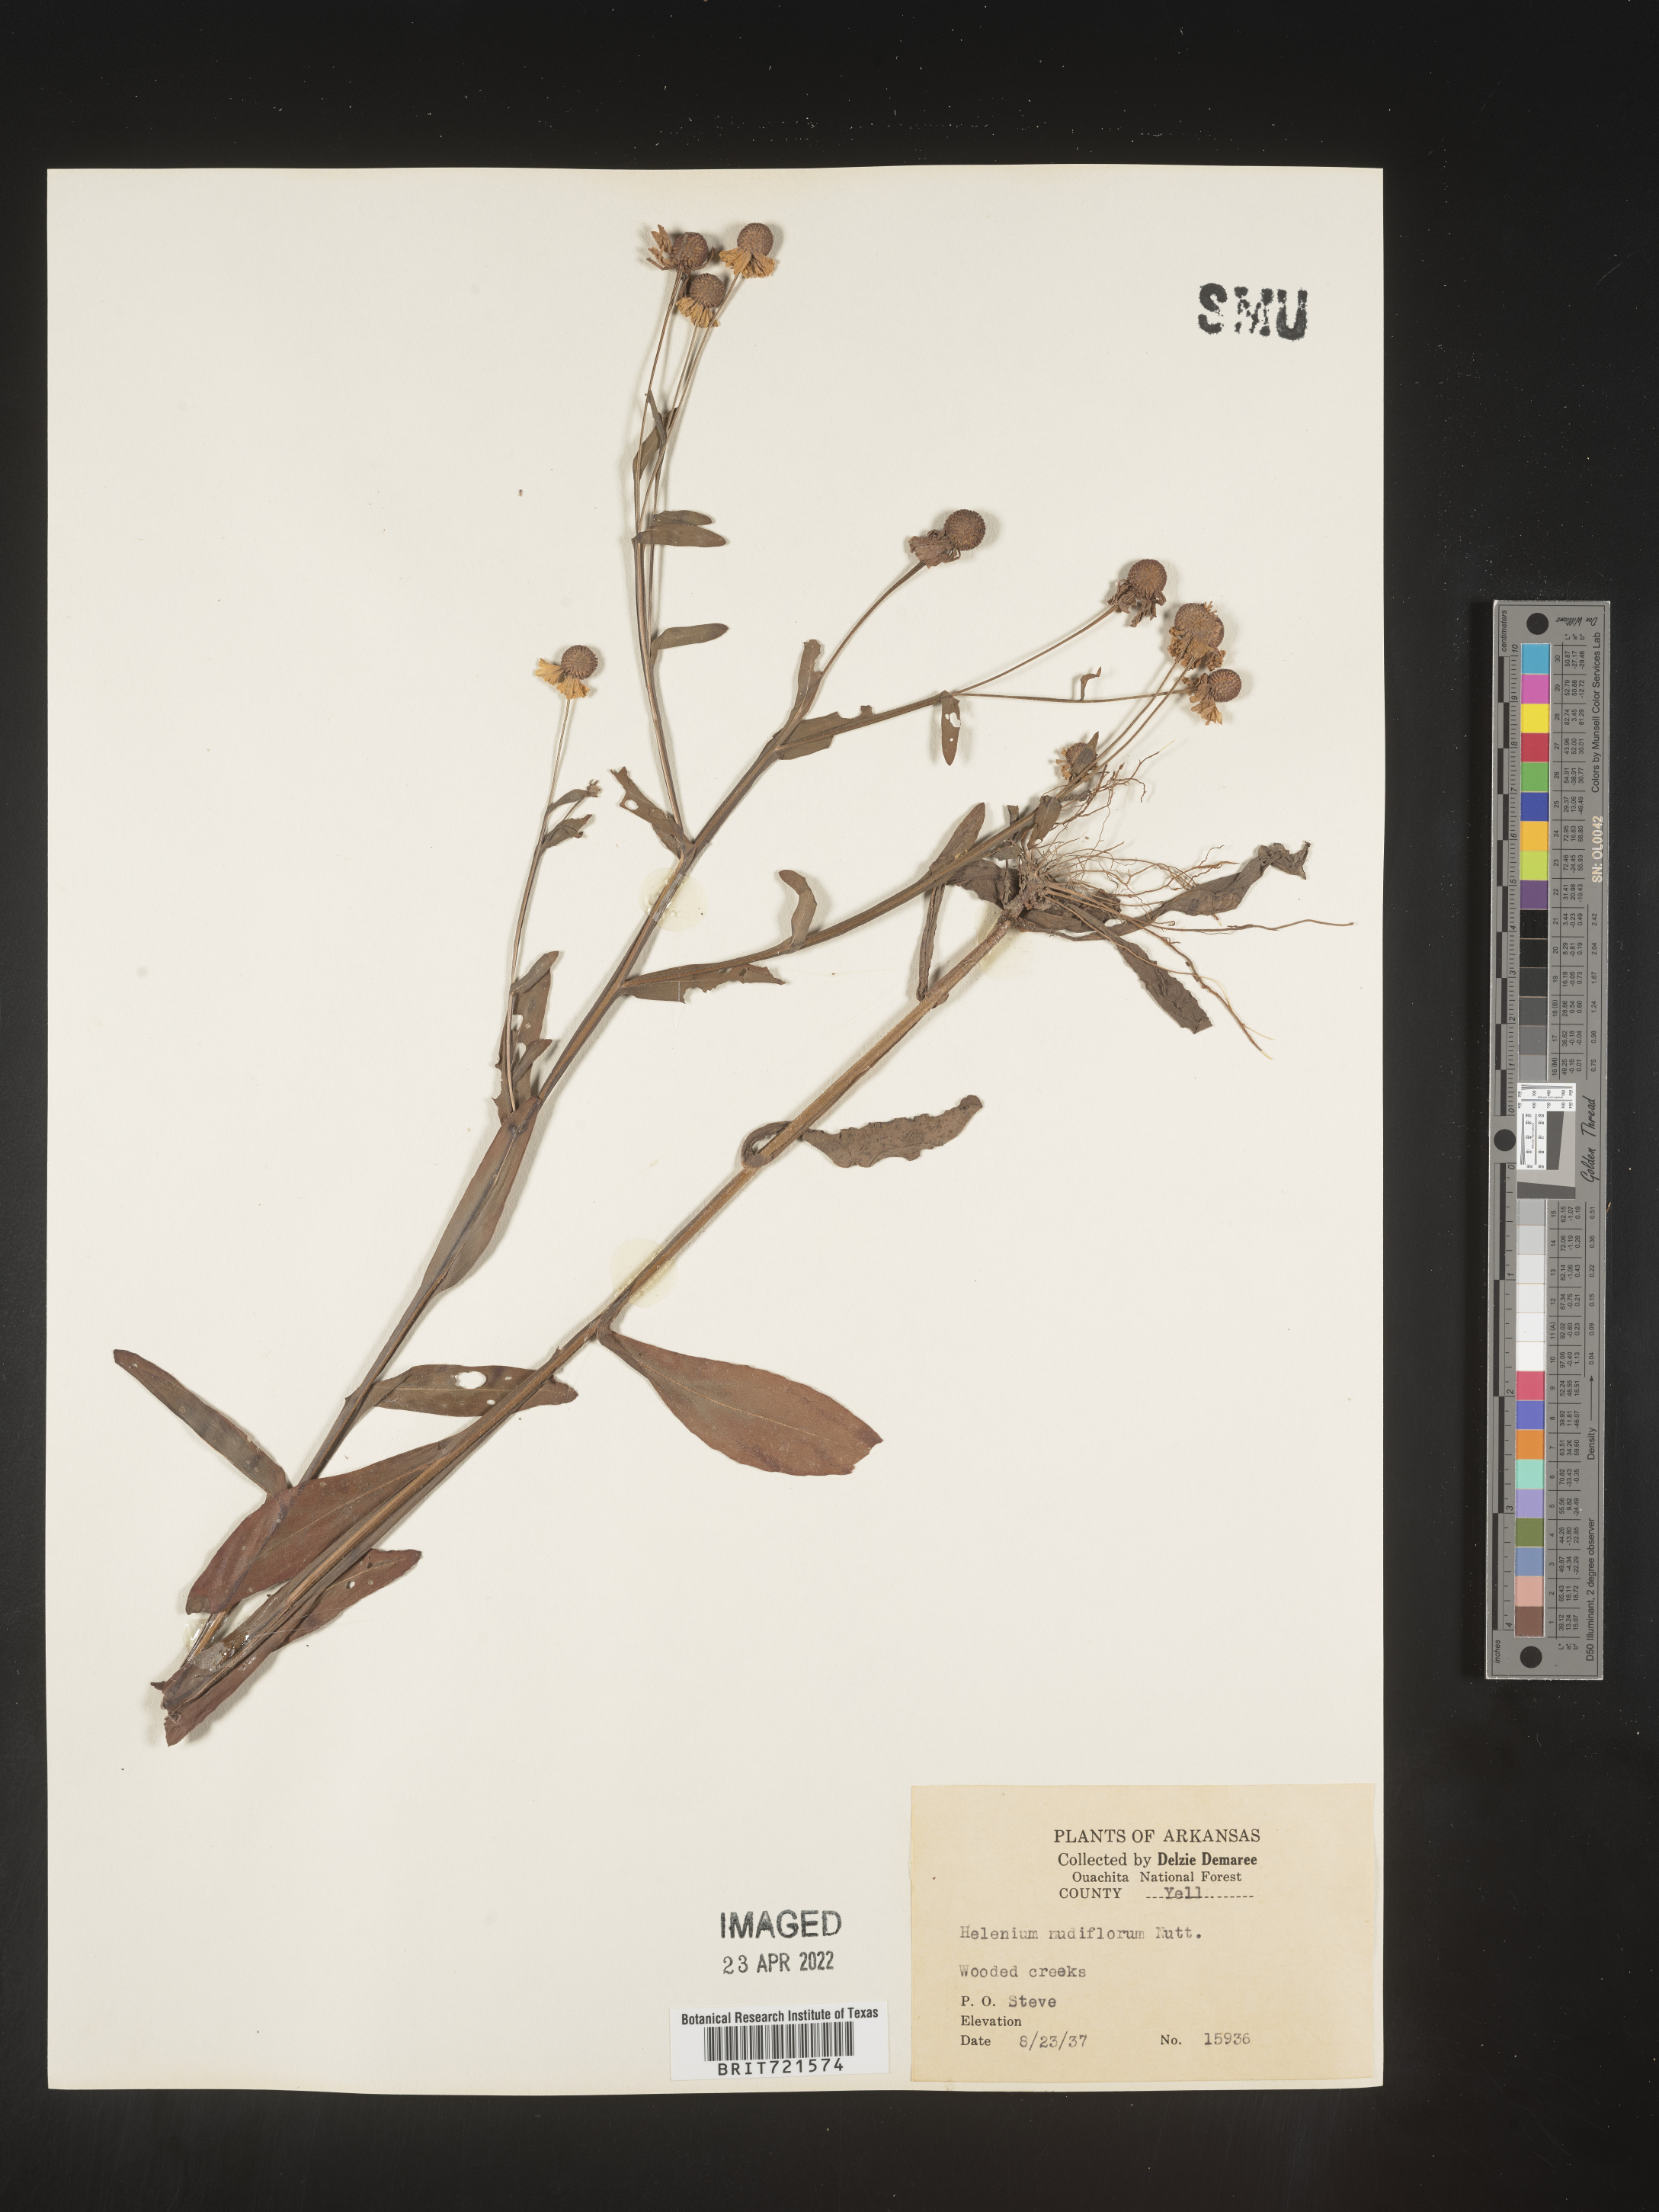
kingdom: Plantae
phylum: Tracheophyta
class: Magnoliopsida
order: Asterales
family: Asteraceae
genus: Helenium
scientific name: Helenium flexuosum
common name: Naked-flowered sneezeweed
